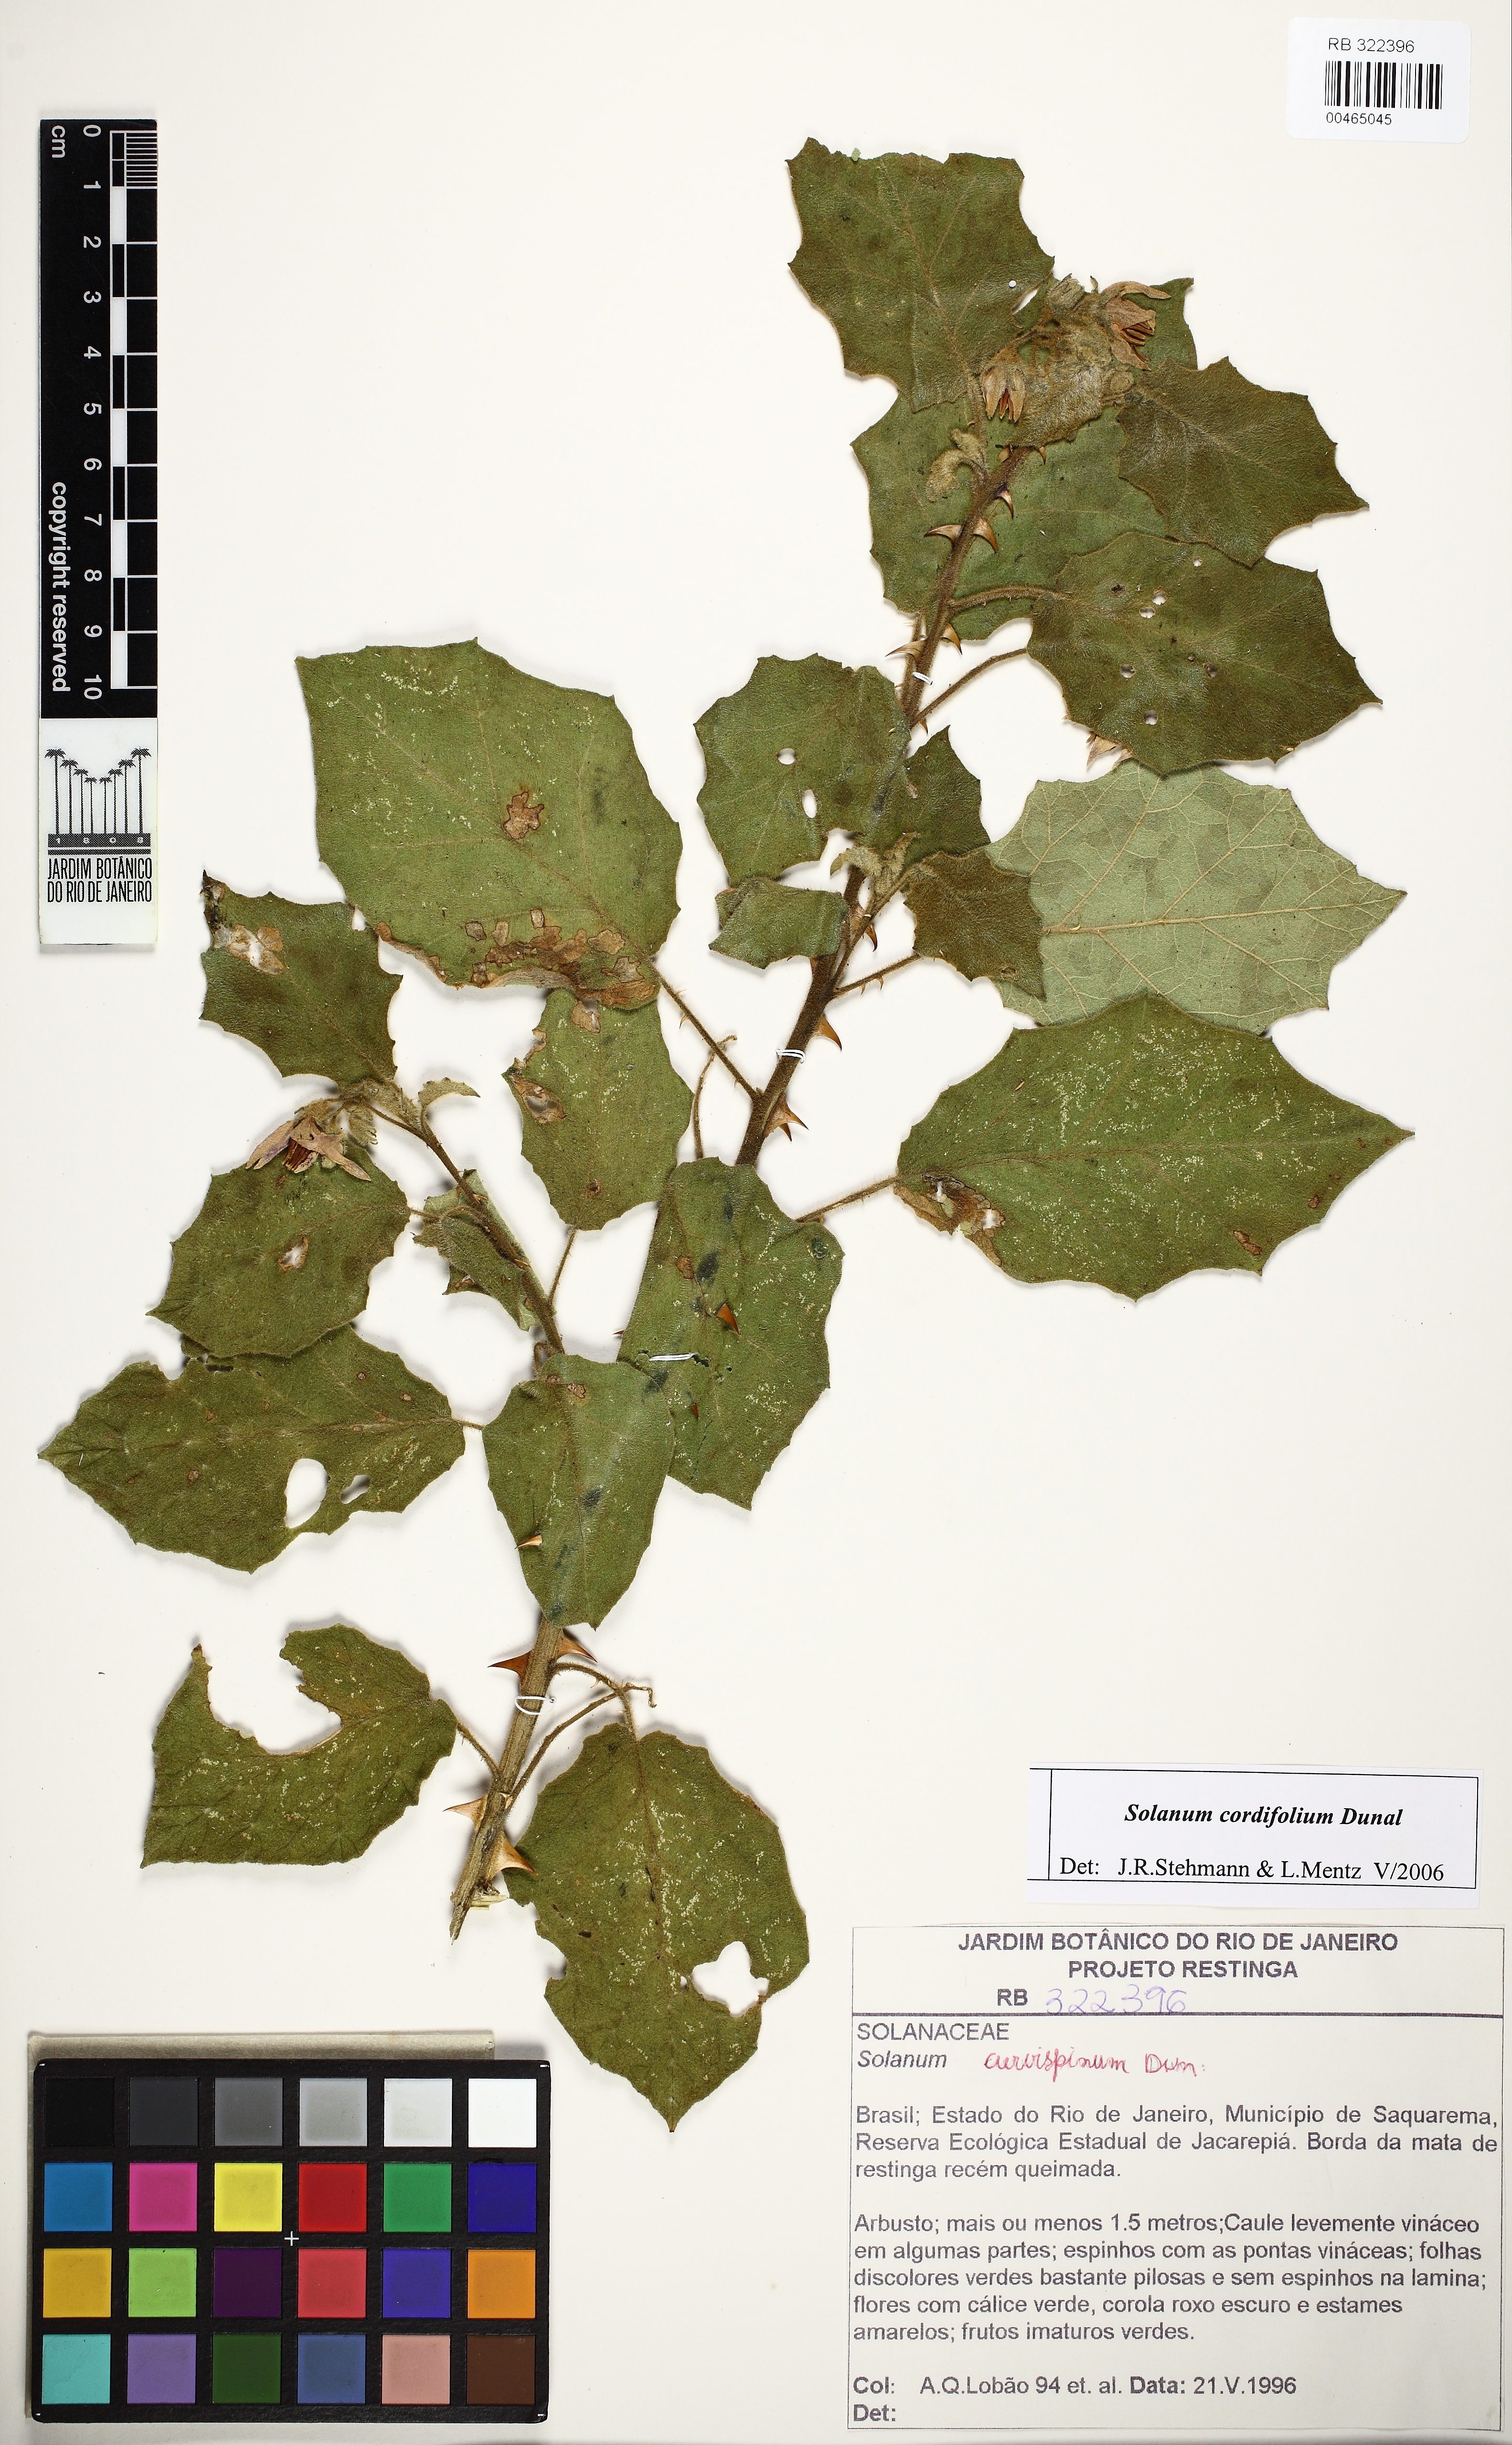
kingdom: Plantae
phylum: Tracheophyta
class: Magnoliopsida
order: Solanales
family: Solanaceae
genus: Solanum
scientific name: Solanum cordifolium
